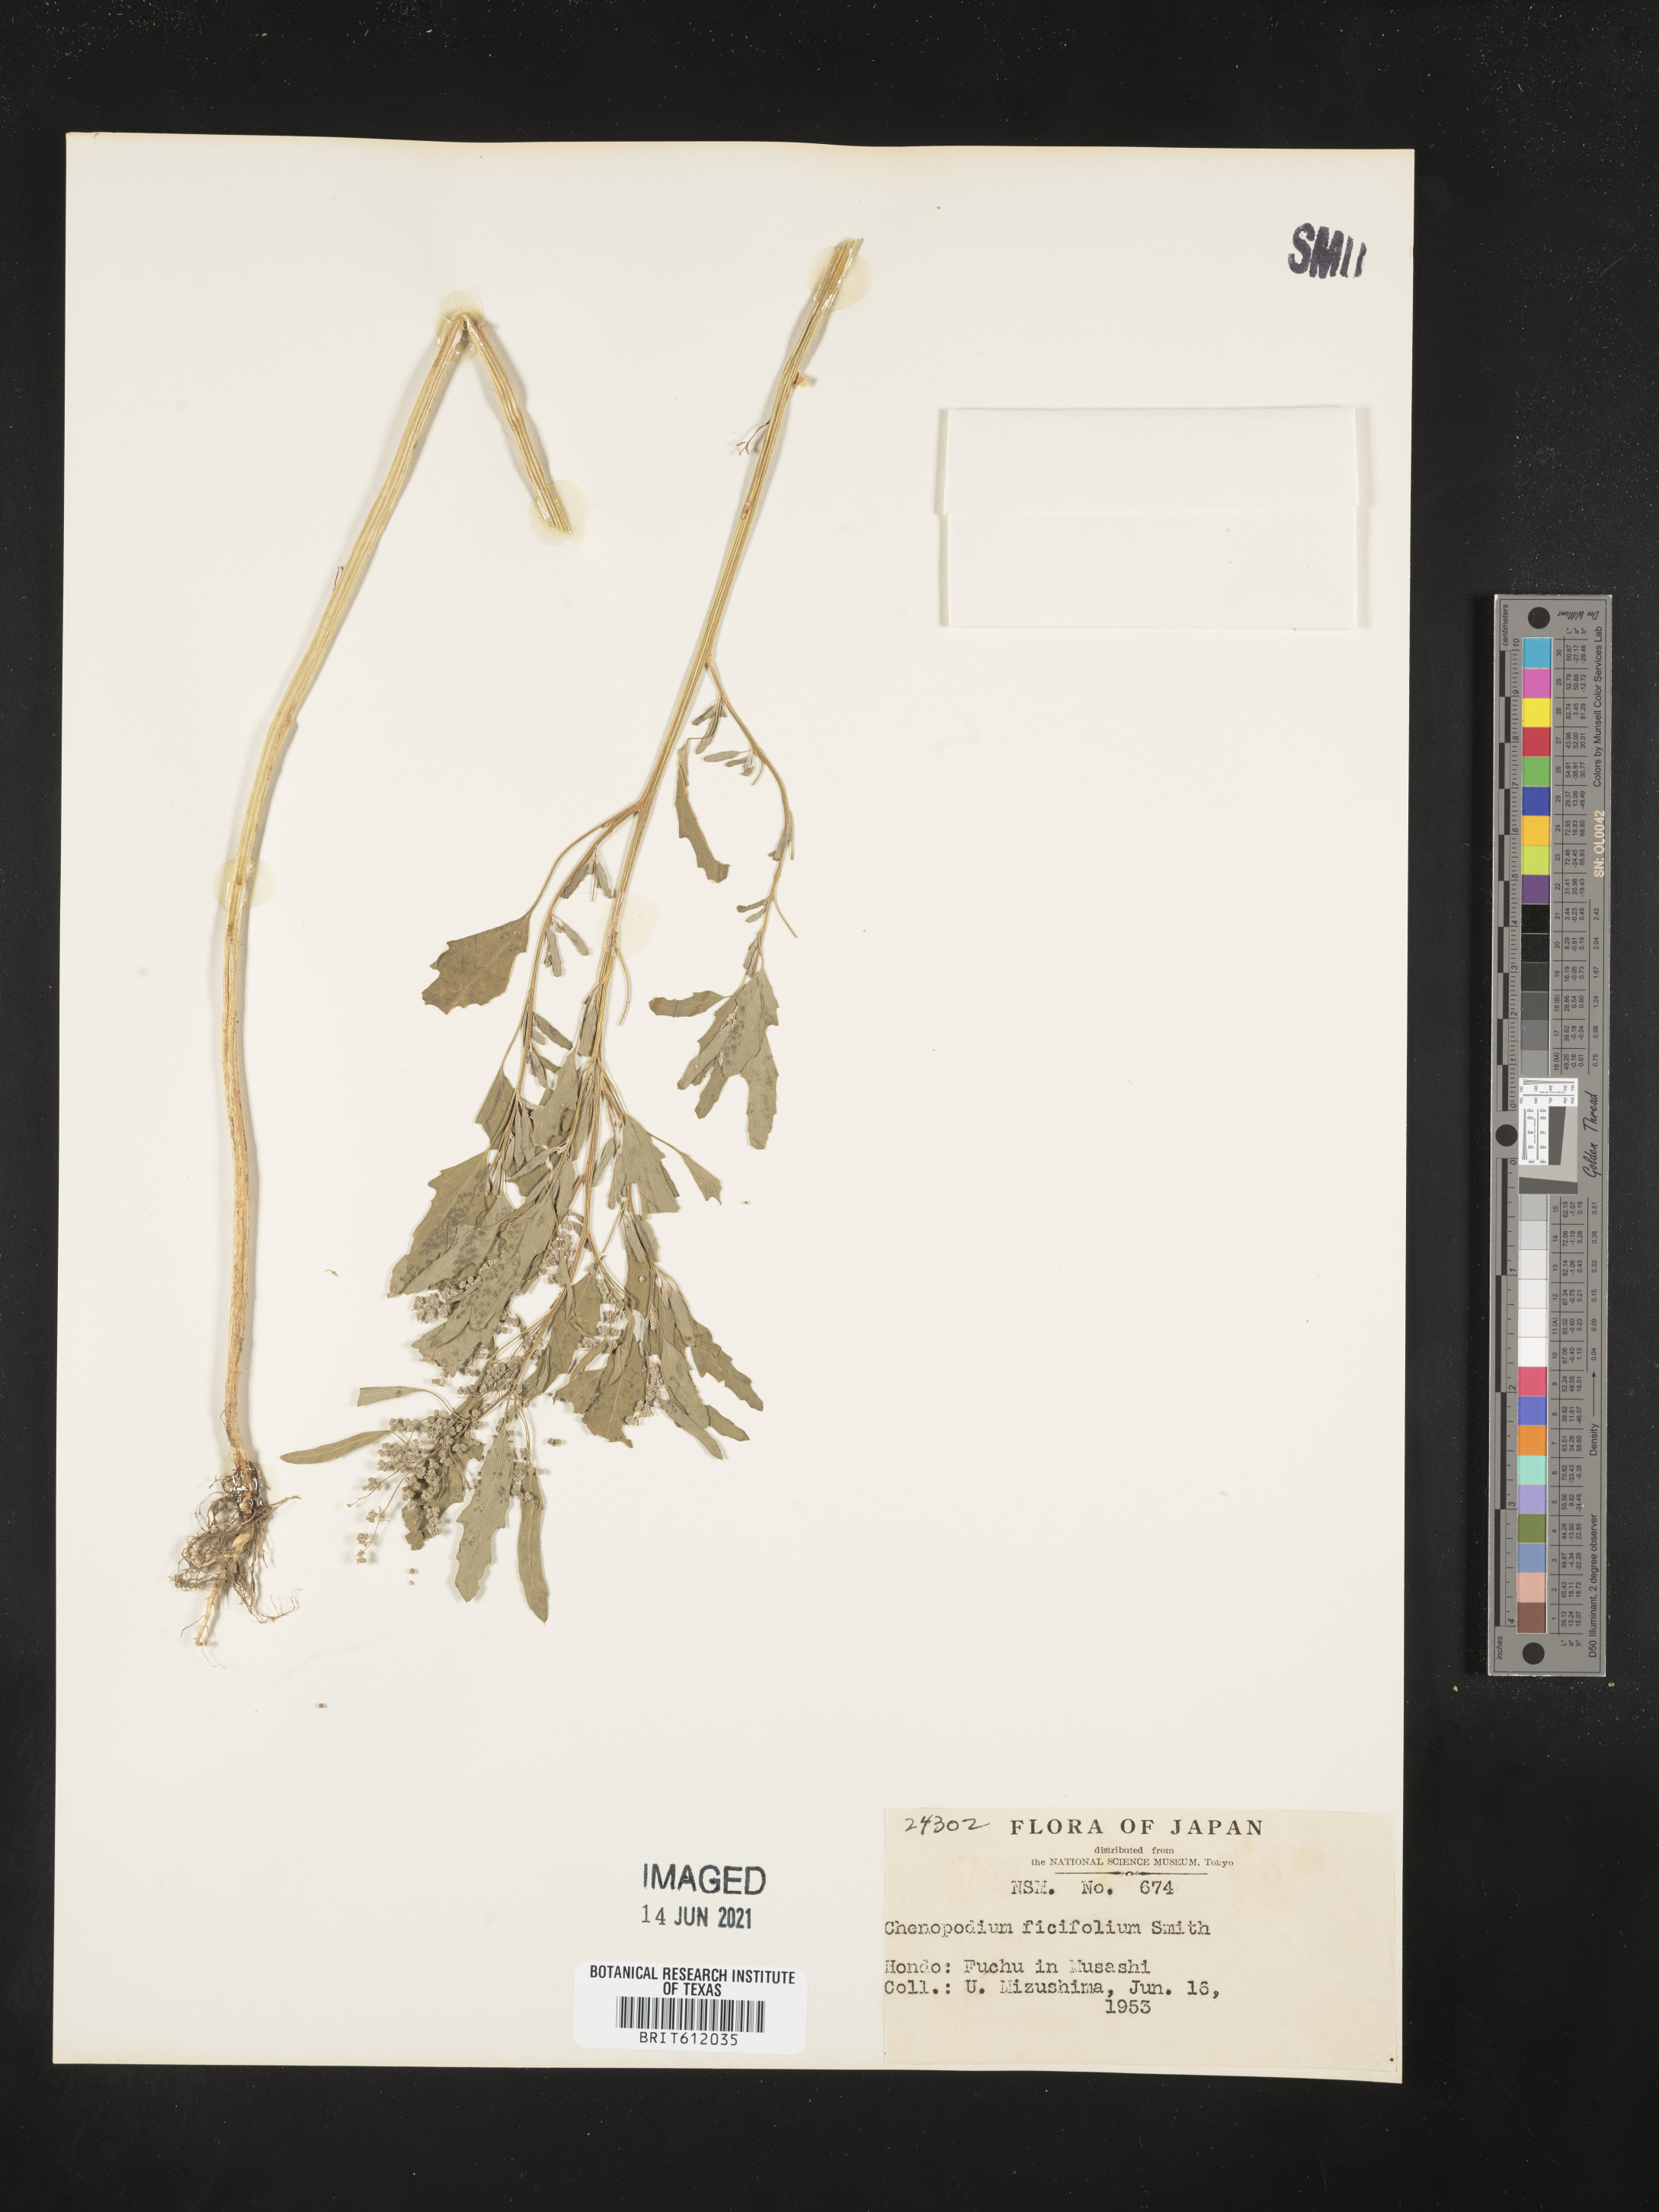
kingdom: Plantae
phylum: Tracheophyta
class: Magnoliopsida
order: Caryophyllales
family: Amaranthaceae
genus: Chenopodium
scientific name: Chenopodium ficifolium
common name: Fig-leaved goosefoot
